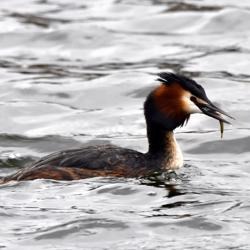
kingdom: Animalia
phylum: Chordata
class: Aves
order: Podicipediformes
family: Podicipedidae
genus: Podiceps
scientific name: Podiceps cristatus
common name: Toppet lappedykker
